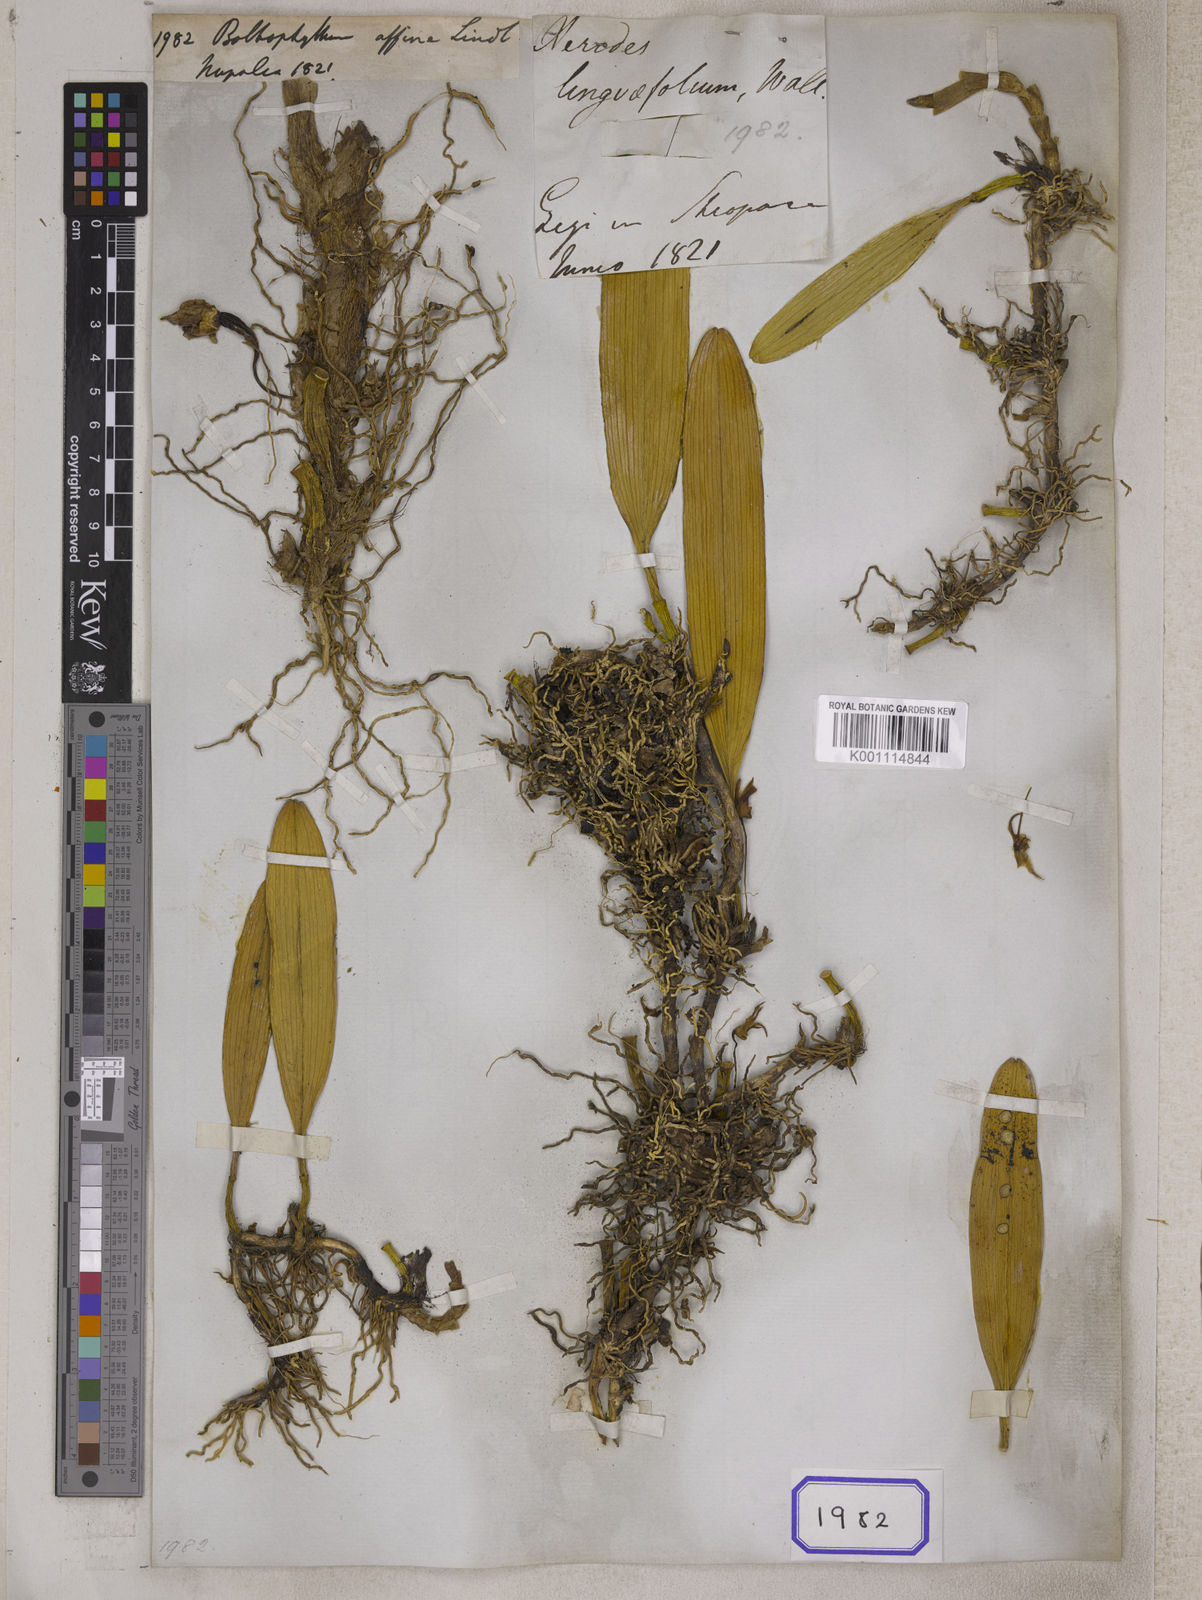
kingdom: Plantae
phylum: Tracheophyta
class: Liliopsida
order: Asparagales
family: Orchidaceae
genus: Bulbophyllum
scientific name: Bulbophyllum affine
